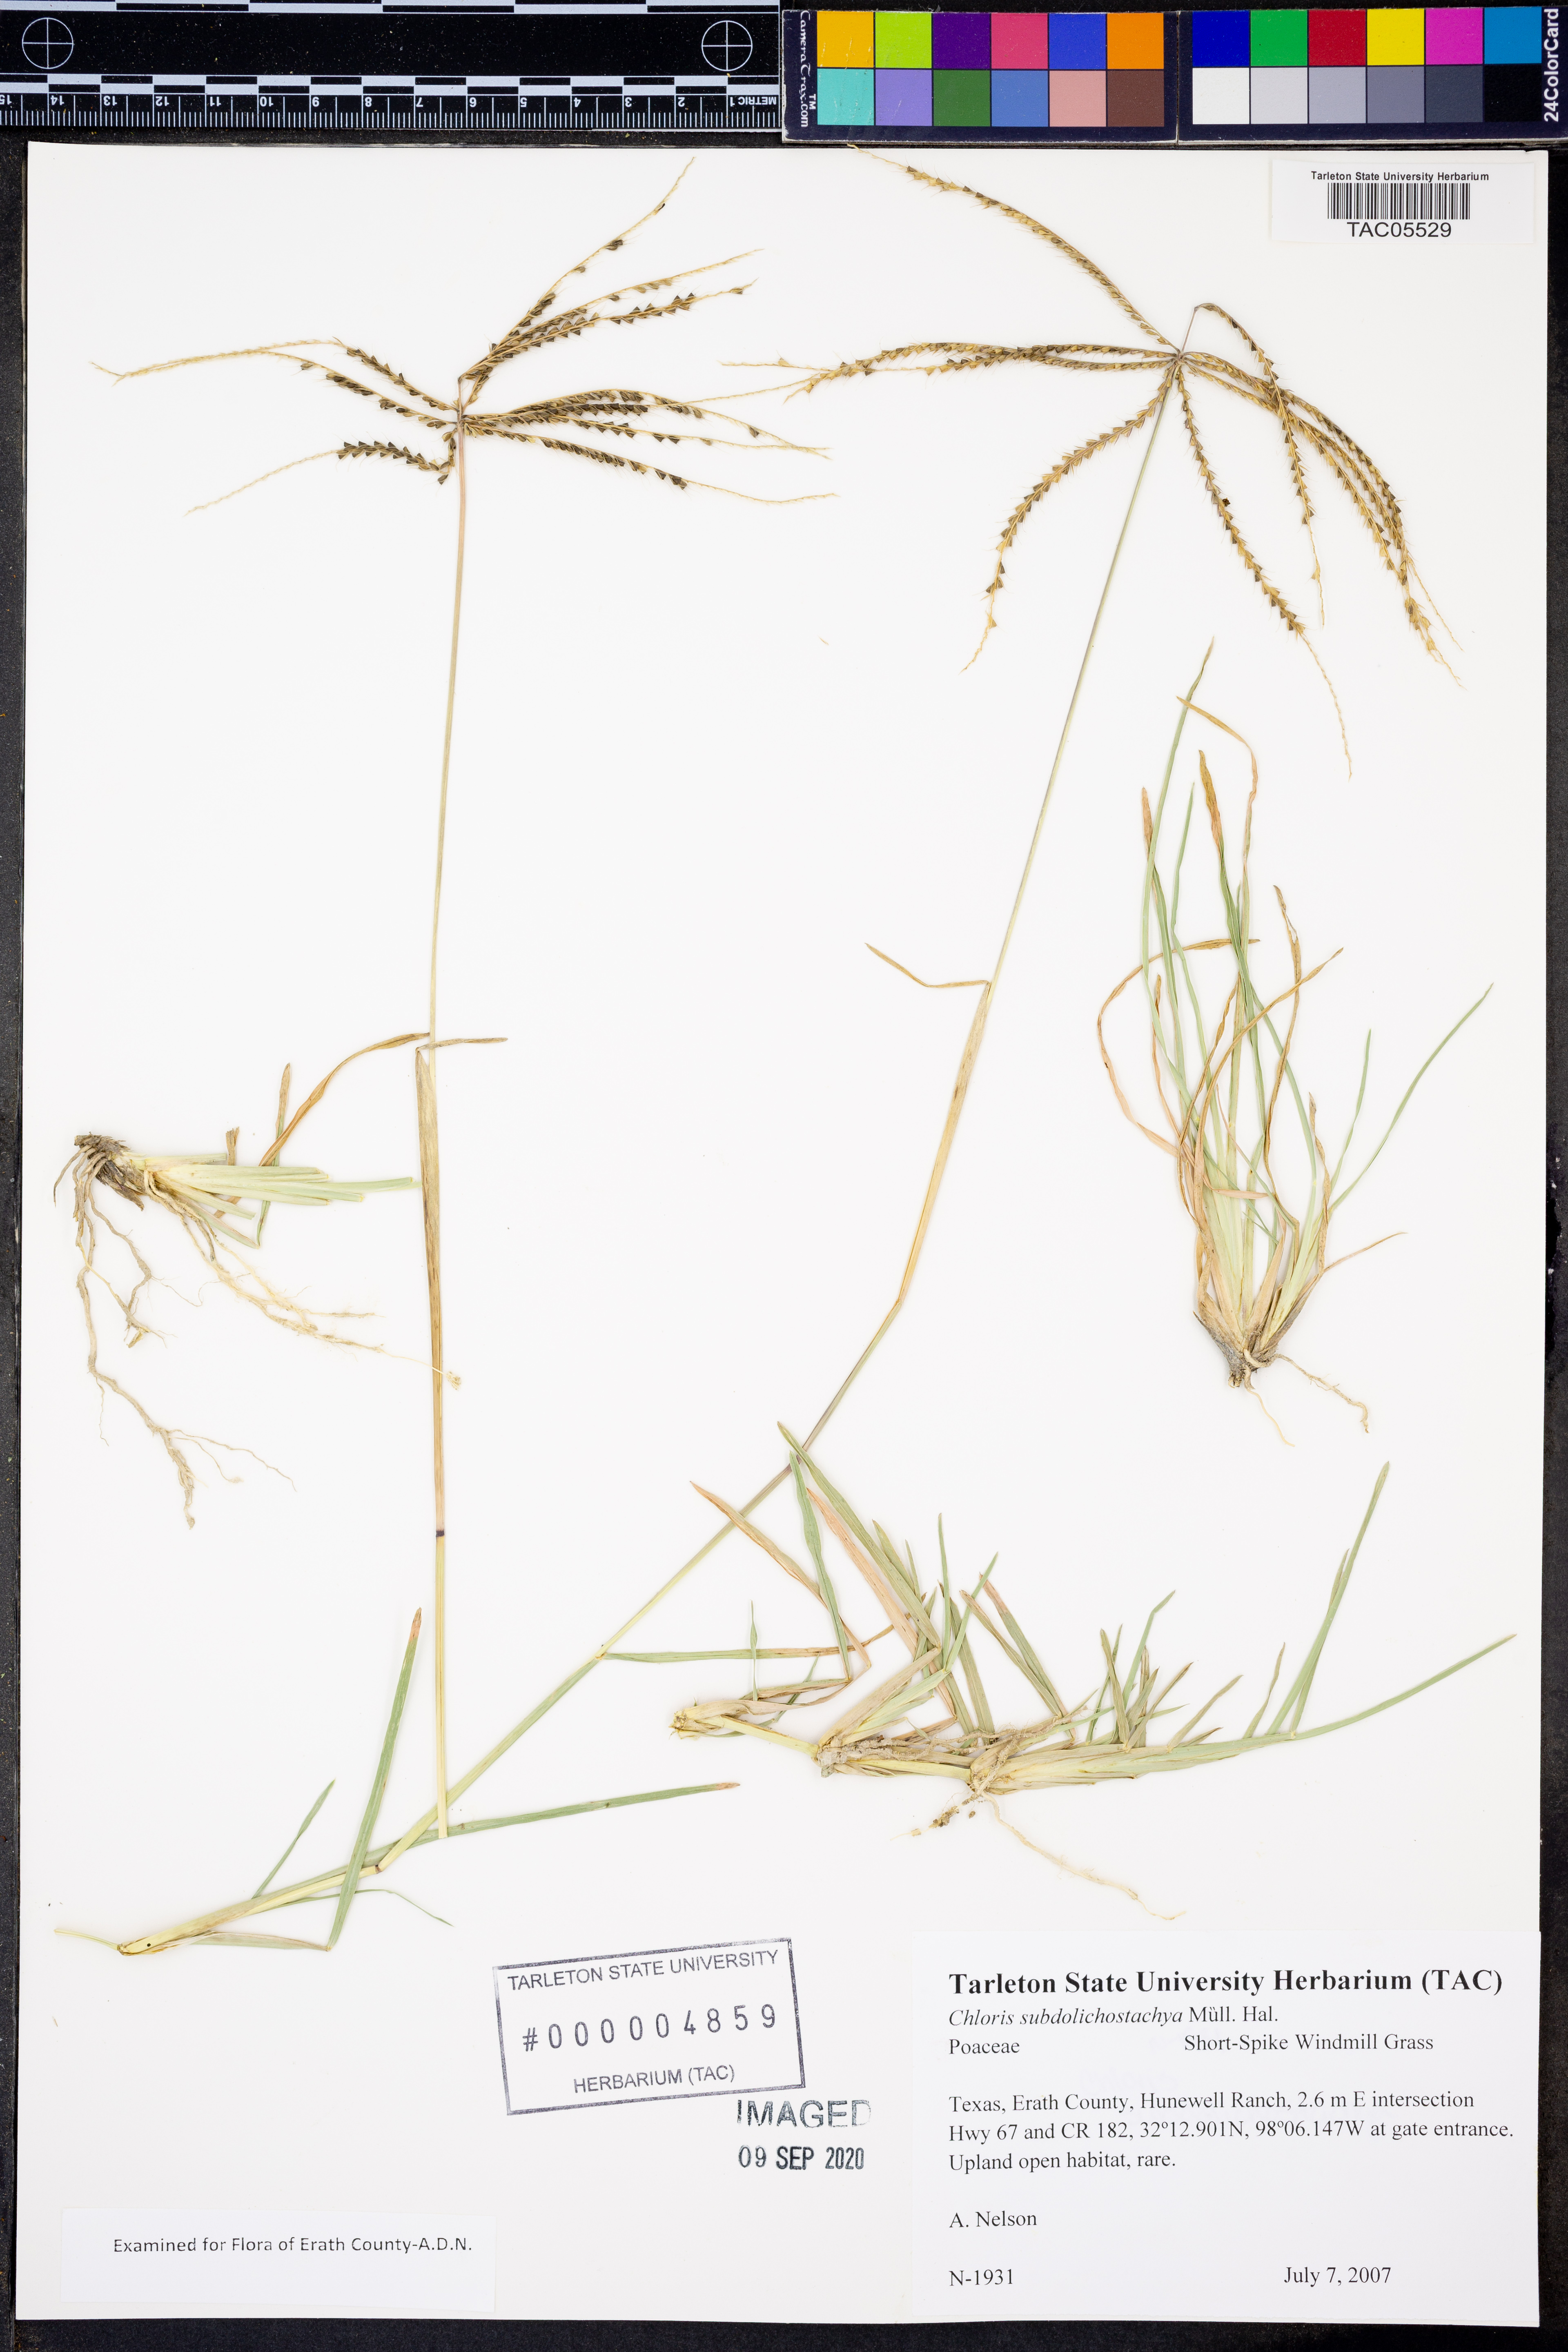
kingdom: Plantae
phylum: Tracheophyta
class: Liliopsida
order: Poales
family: Poaceae
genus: Chloris
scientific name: Chloris subdolichostachya
